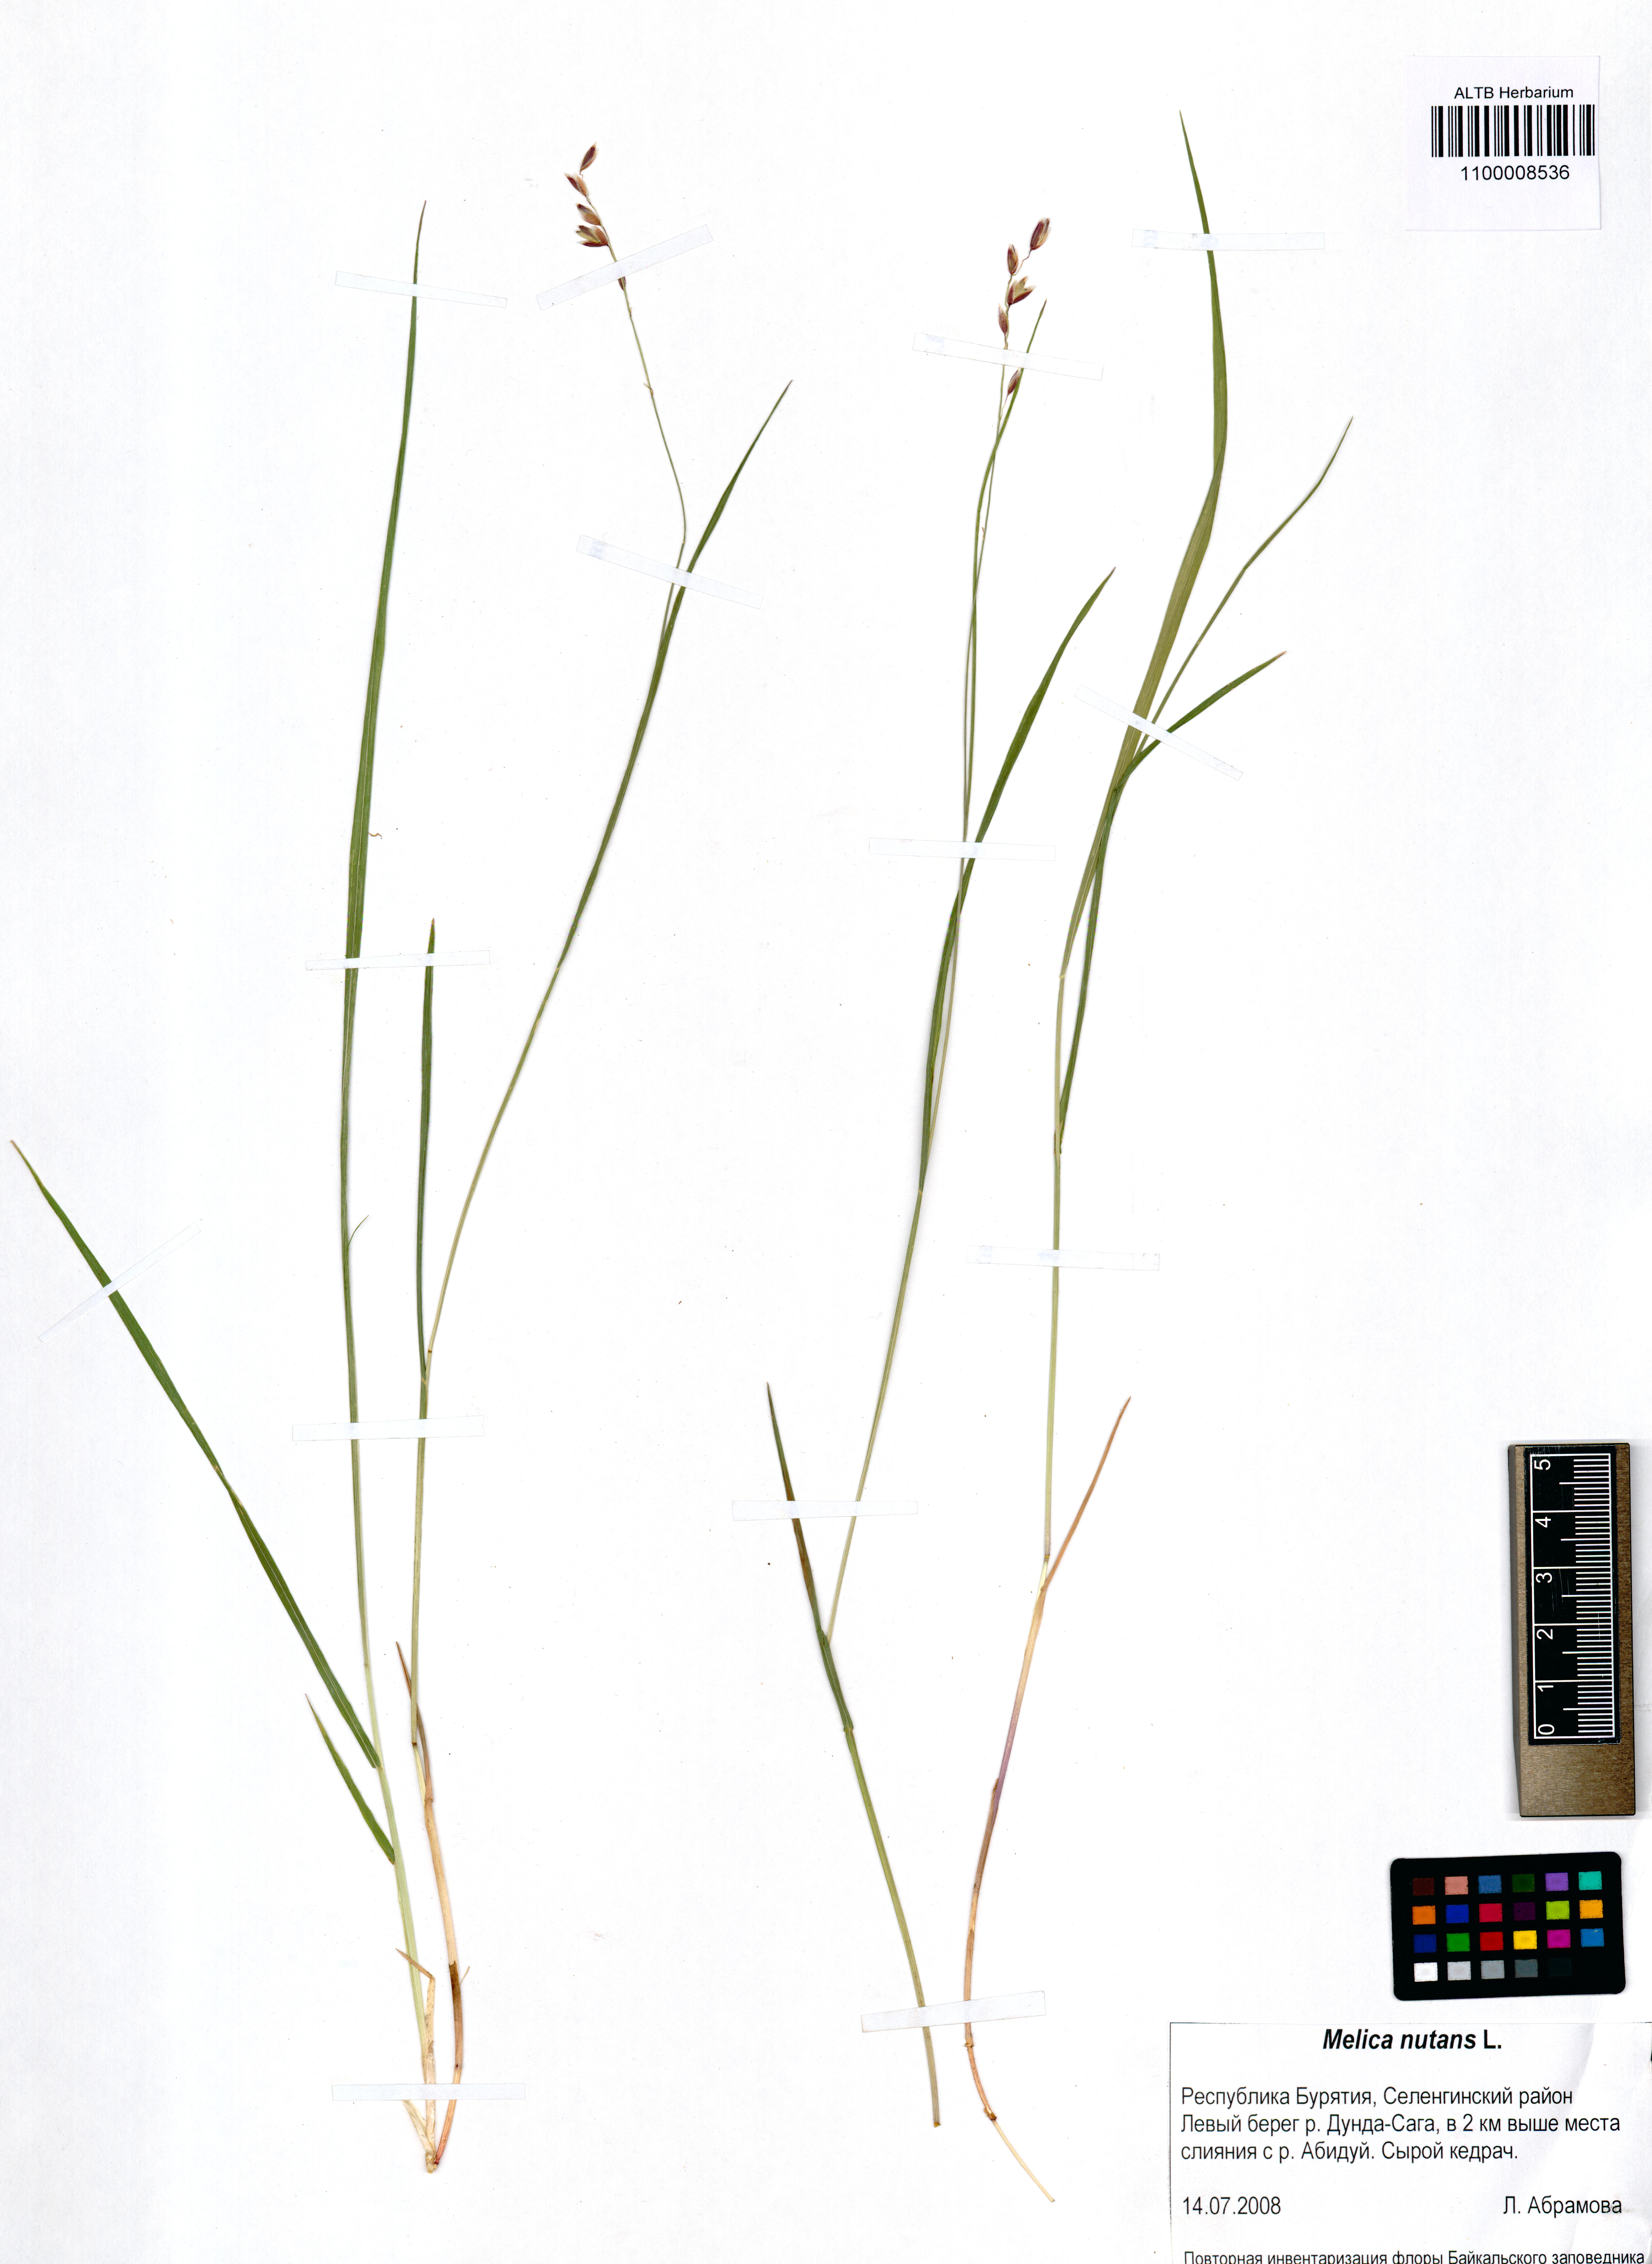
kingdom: Plantae
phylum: Tracheophyta
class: Liliopsida
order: Poales
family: Poaceae
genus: Melica
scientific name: Melica nutans
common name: Mountain melick
